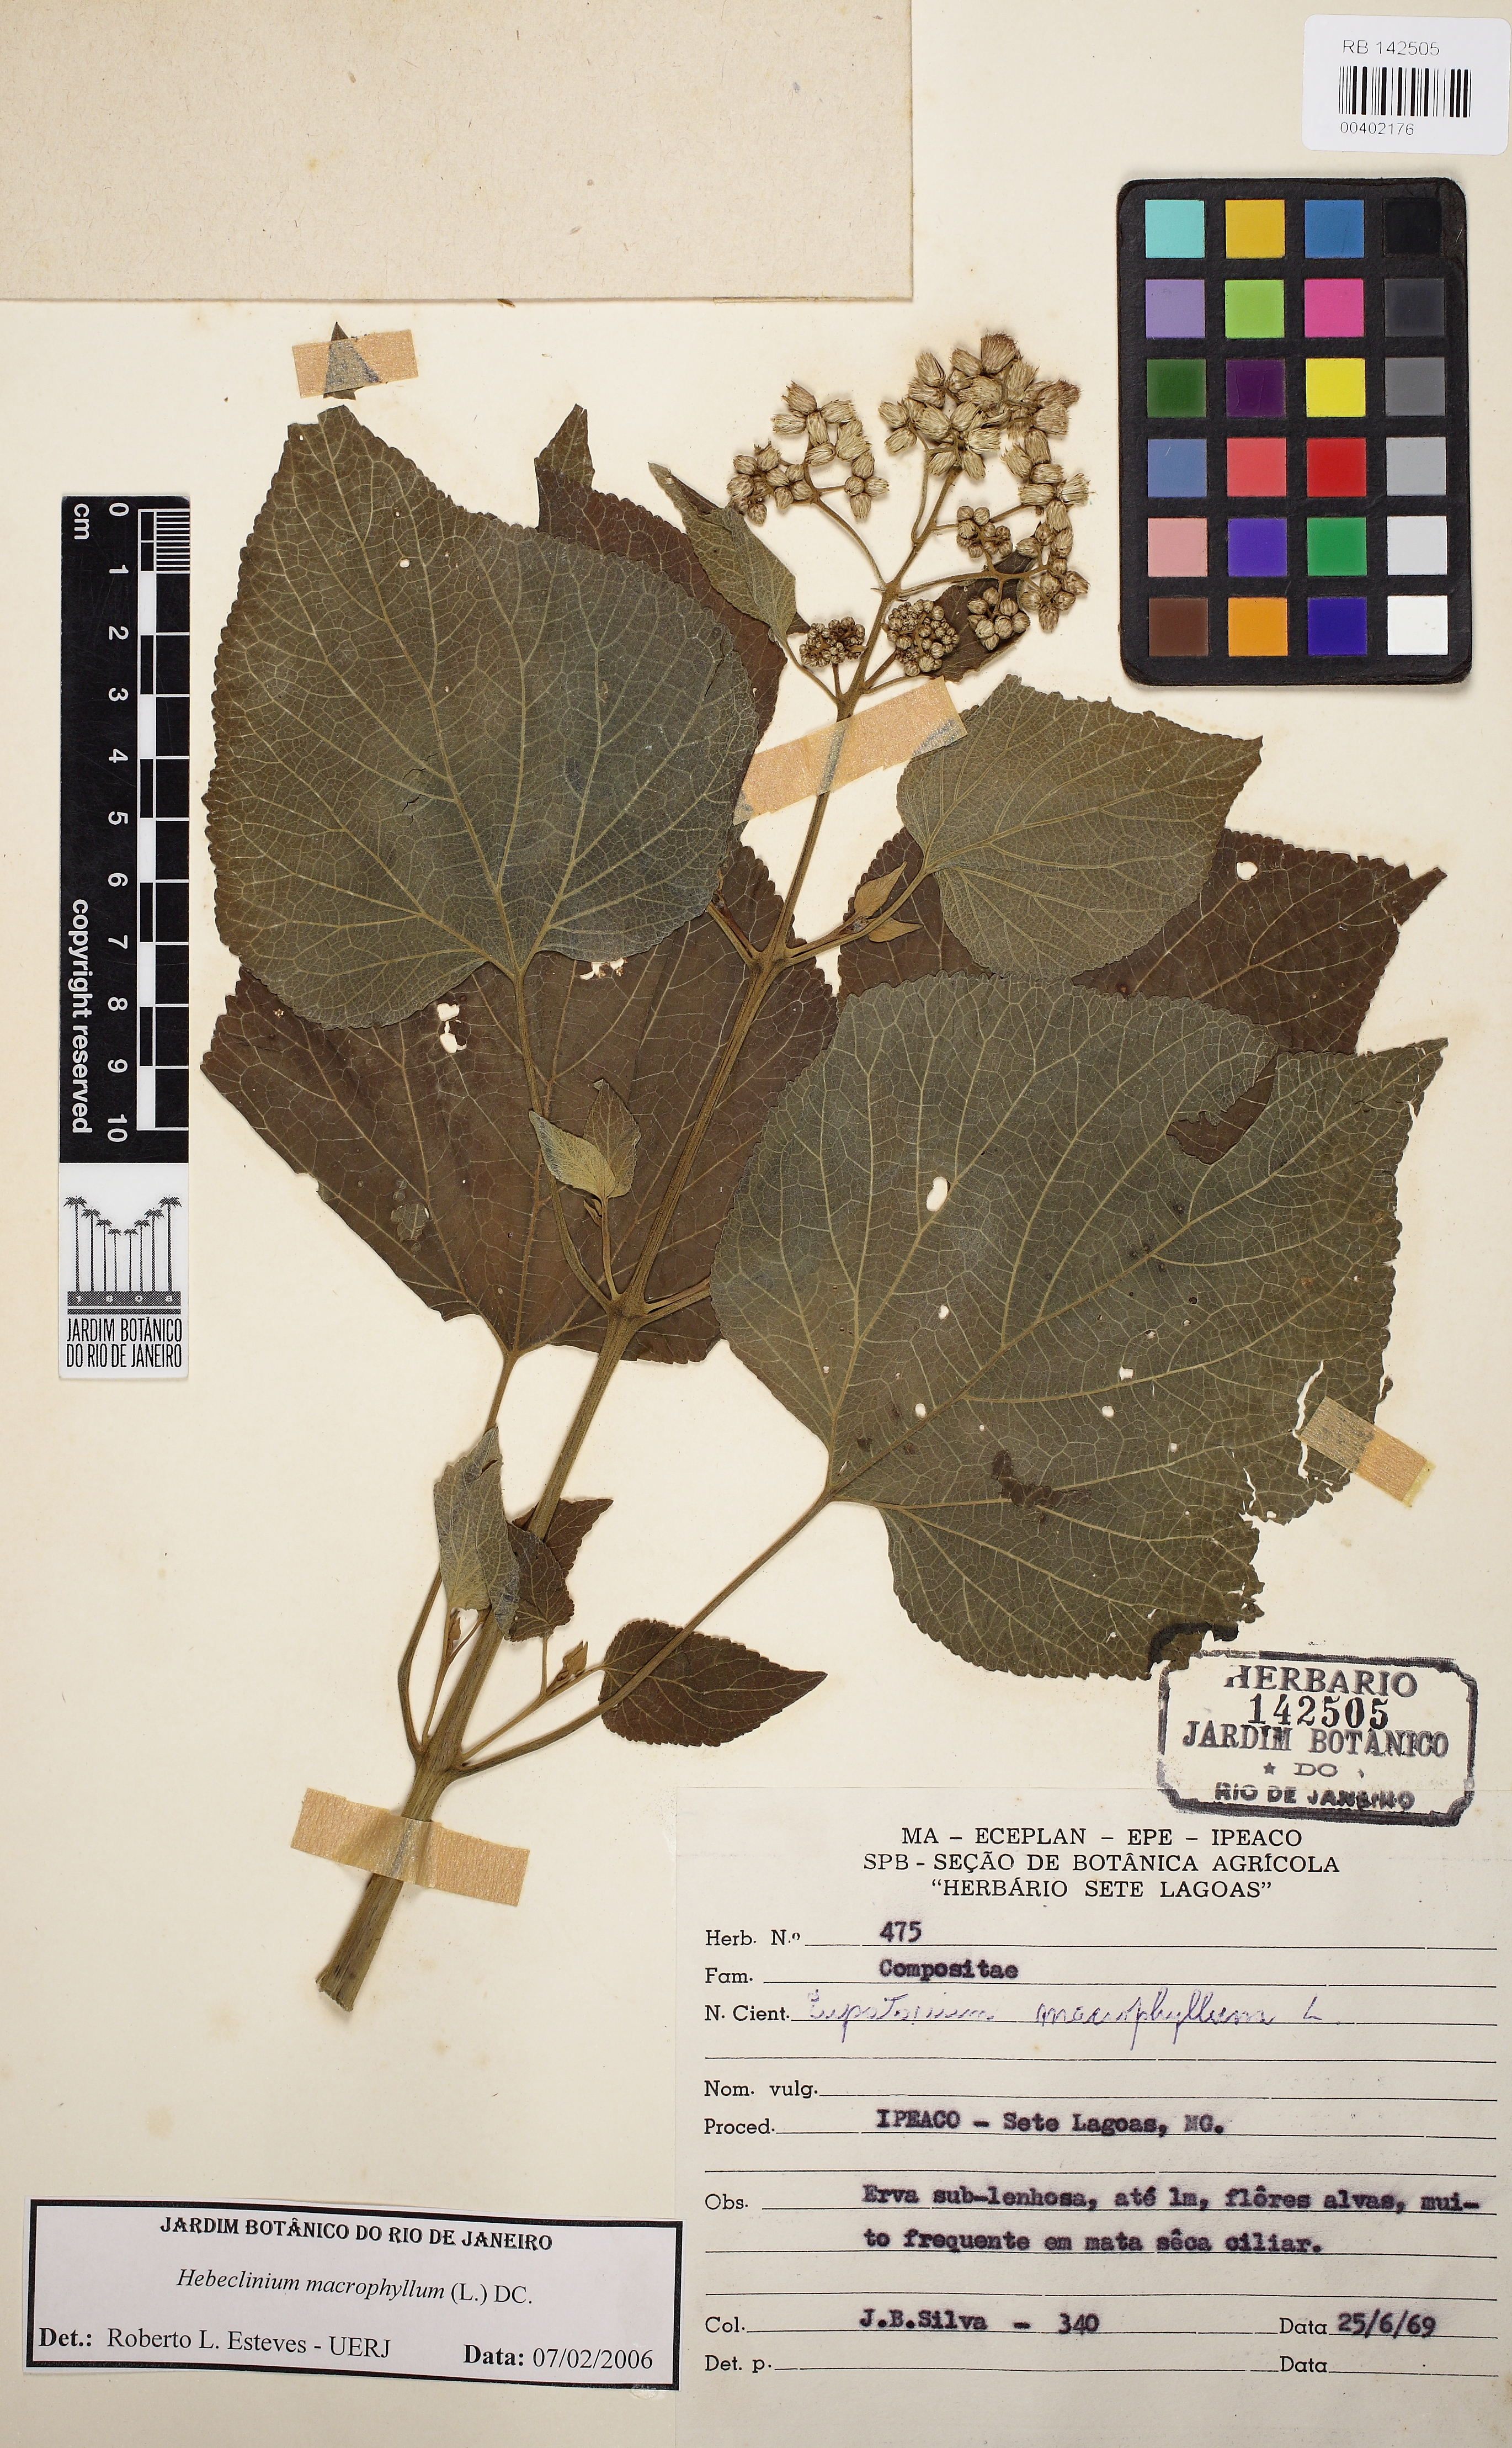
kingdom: Plantae
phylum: Tracheophyta
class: Magnoliopsida
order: Asterales
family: Asteraceae
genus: Hebeclinium
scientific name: Hebeclinium macrophyllum
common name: Largeleaf thoroughwort
